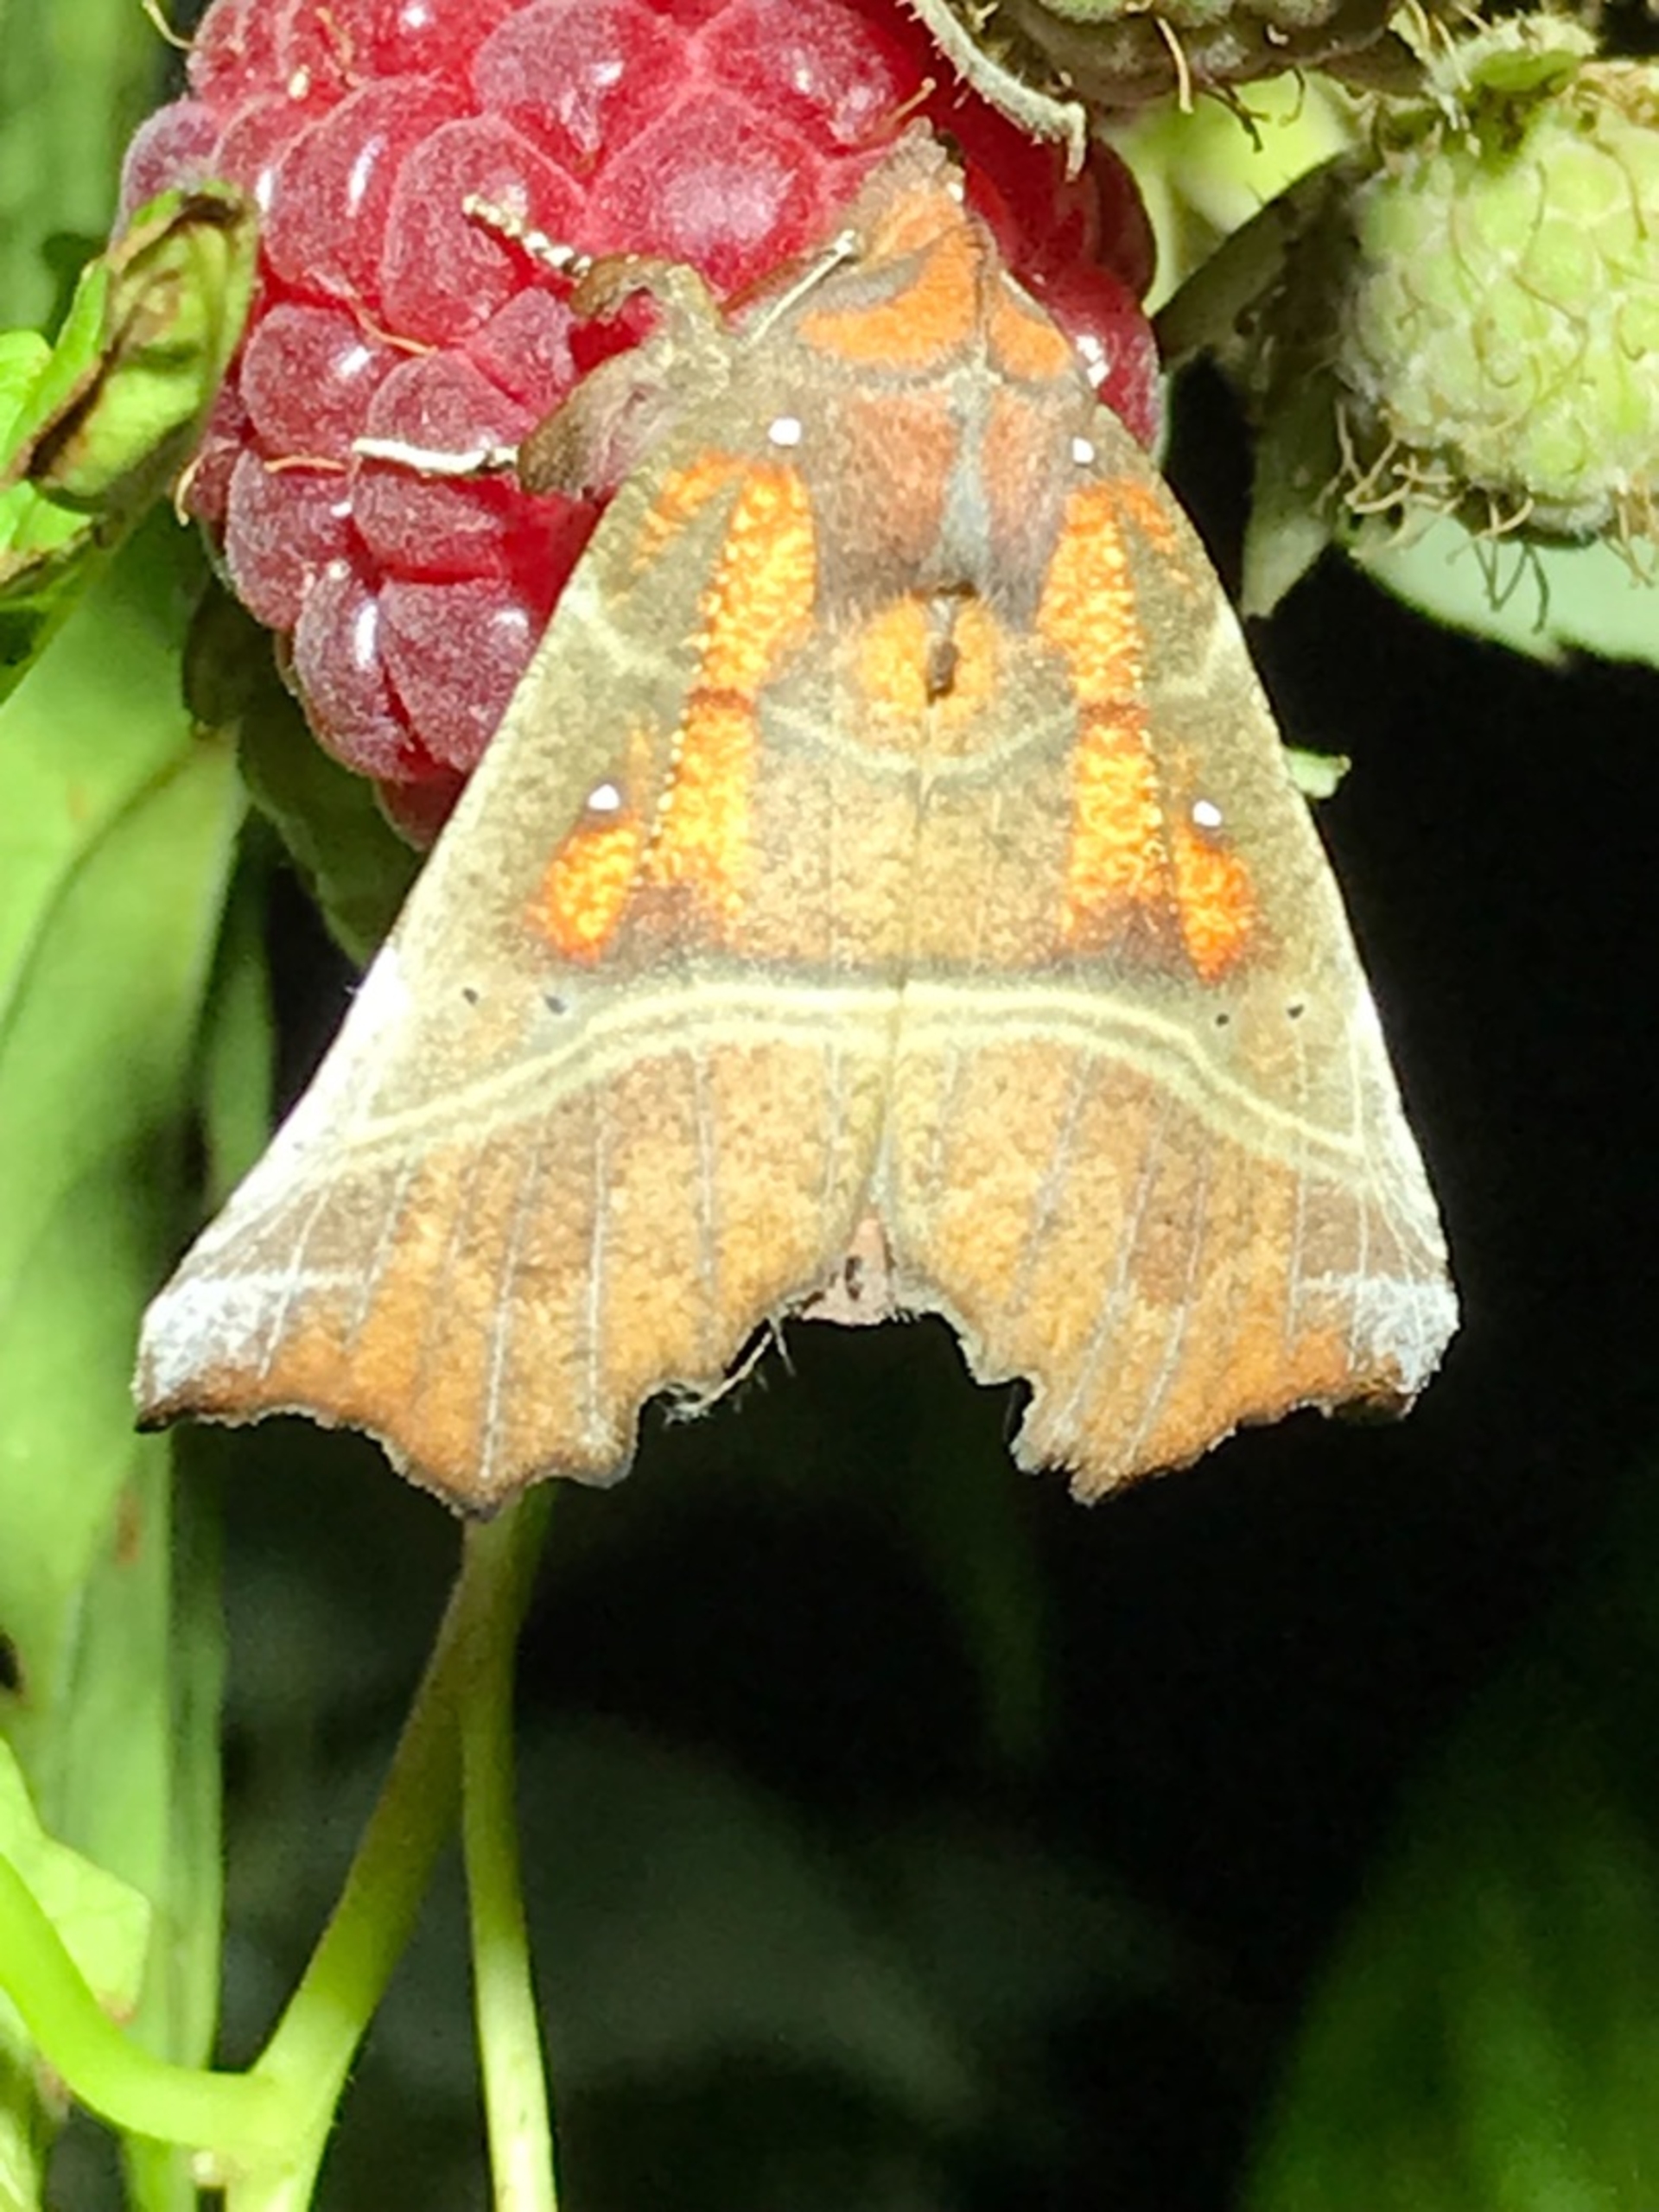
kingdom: Animalia
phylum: Arthropoda
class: Insecta
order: Lepidoptera
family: Erebidae
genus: Scoliopteryx
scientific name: Scoliopteryx libatrix
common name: Husmoderugle
